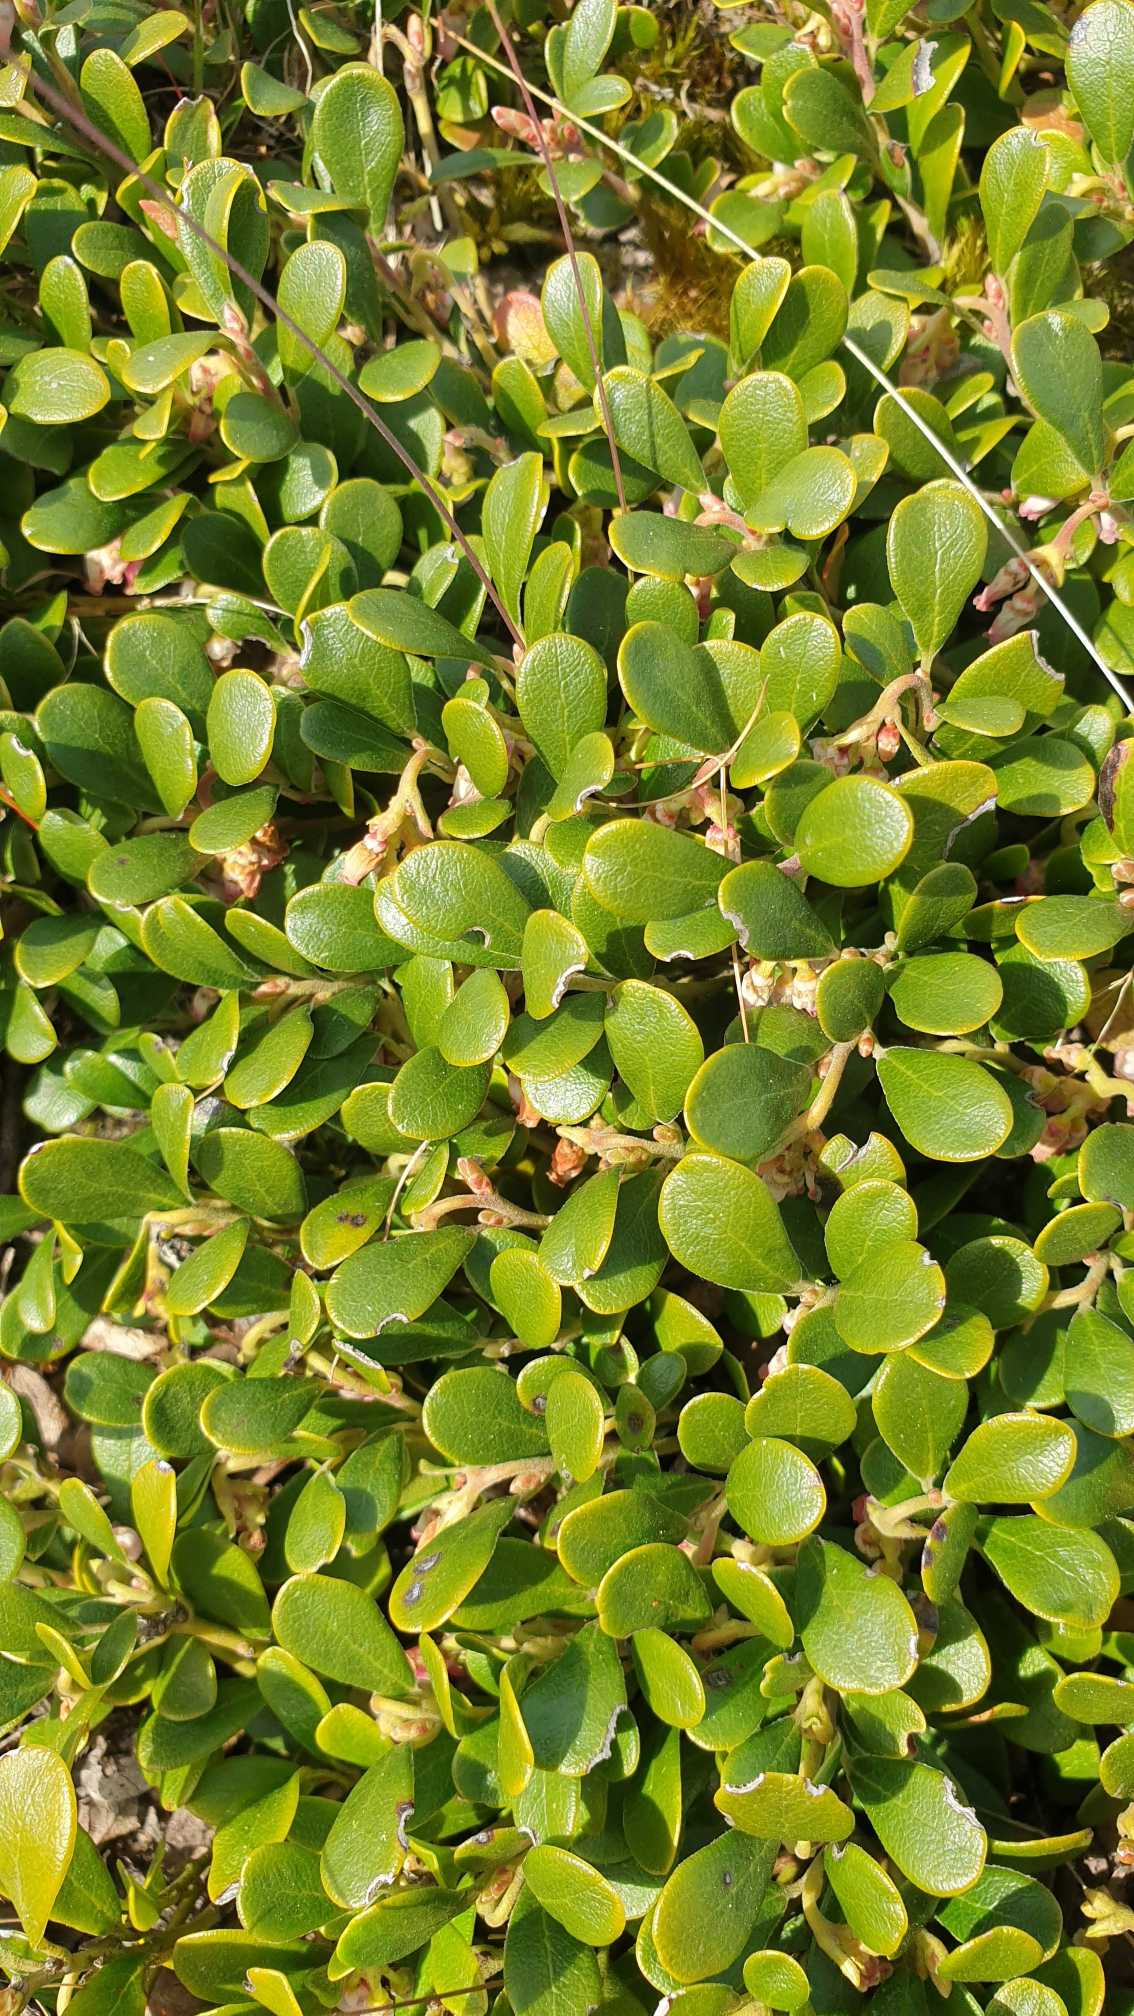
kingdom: Plantae
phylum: Tracheophyta
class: Magnoliopsida
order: Ericales
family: Ericaceae
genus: Arctostaphylos
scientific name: Arctostaphylos uva-ursi
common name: Hede-melbærris
